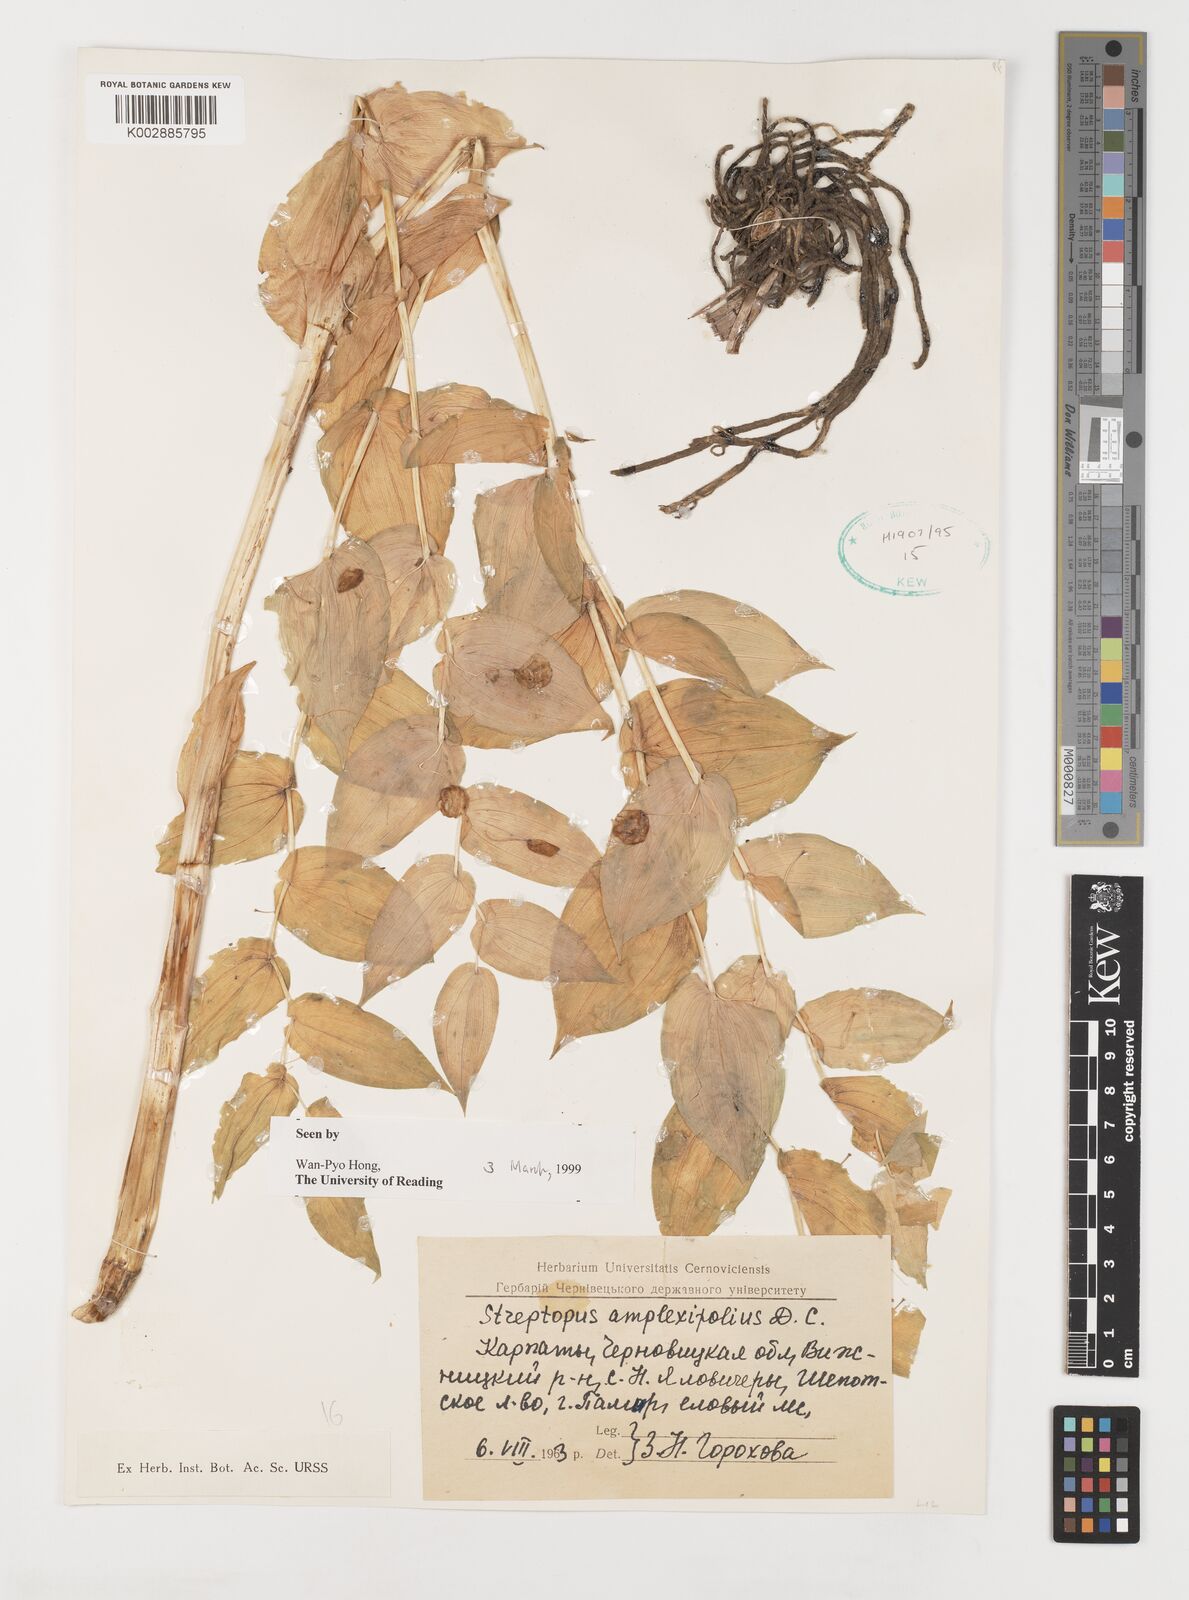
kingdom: Plantae
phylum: Tracheophyta
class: Liliopsida
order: Liliales
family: Liliaceae
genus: Streptopus
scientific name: Streptopus amplexifolius
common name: Clasp twisted stalk
